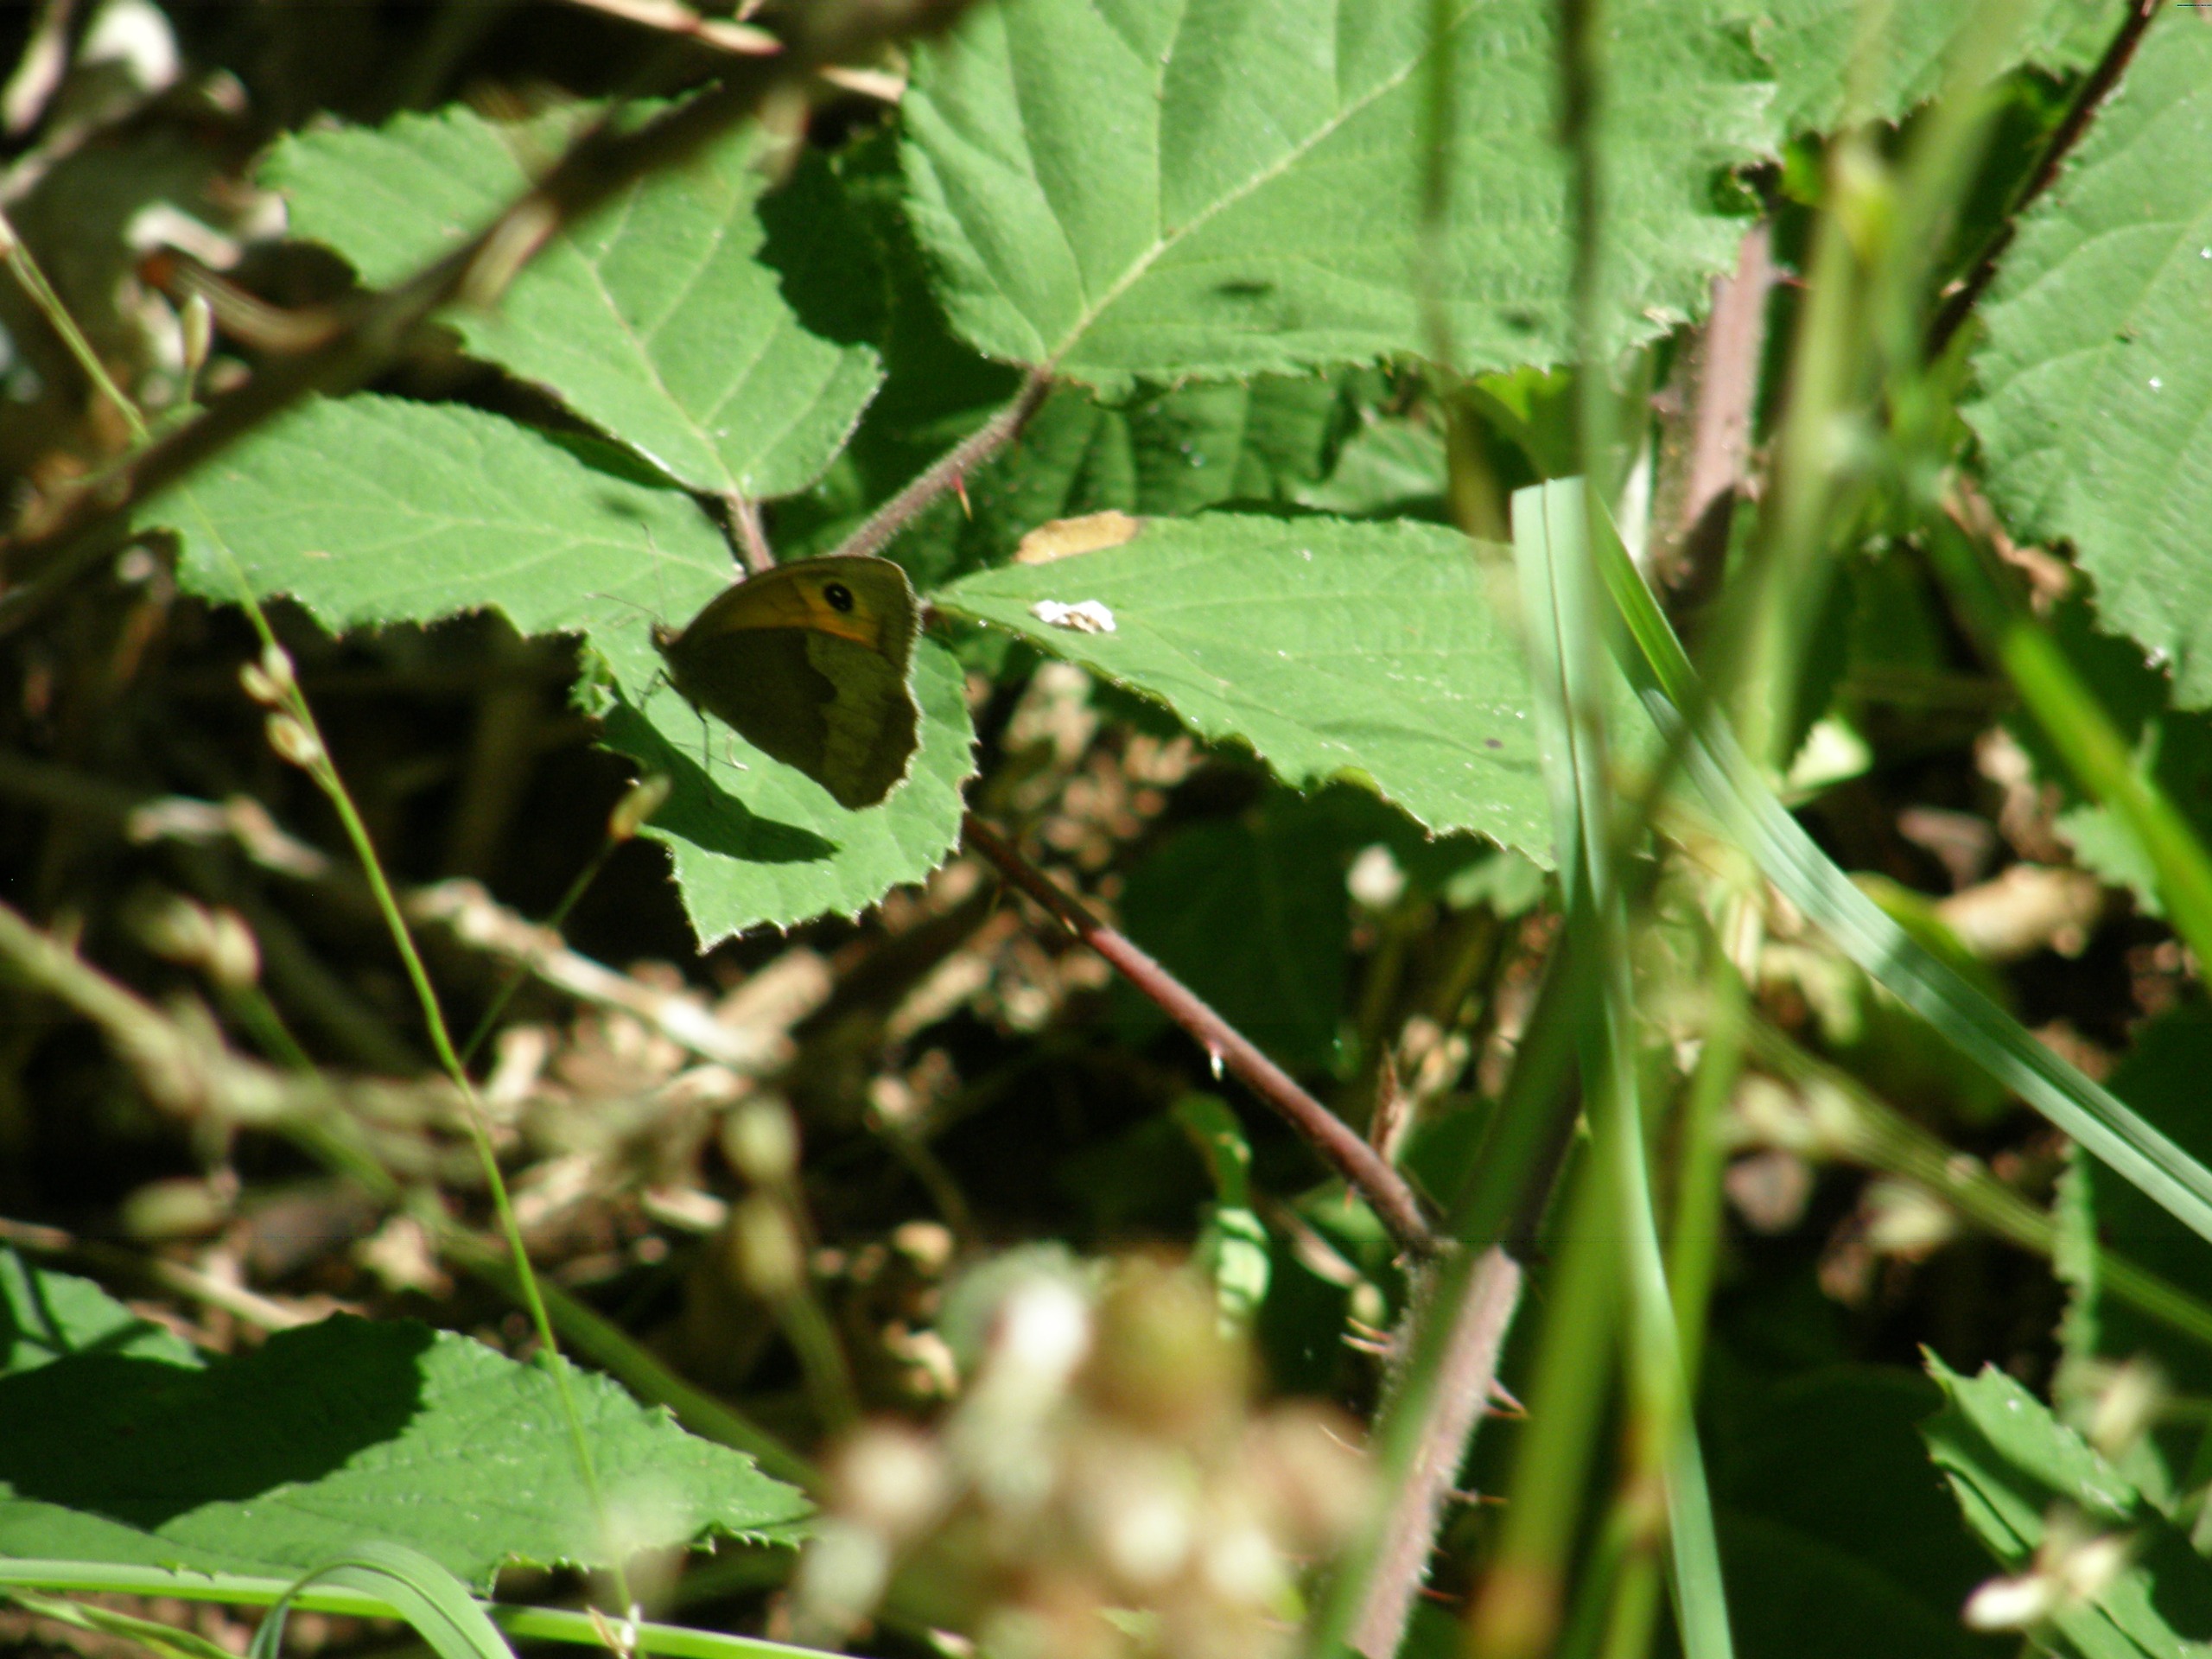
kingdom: Animalia
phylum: Arthropoda
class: Insecta
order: Lepidoptera
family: Nymphalidae
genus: Maniola
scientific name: Maniola jurtina
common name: Græsrandøje
